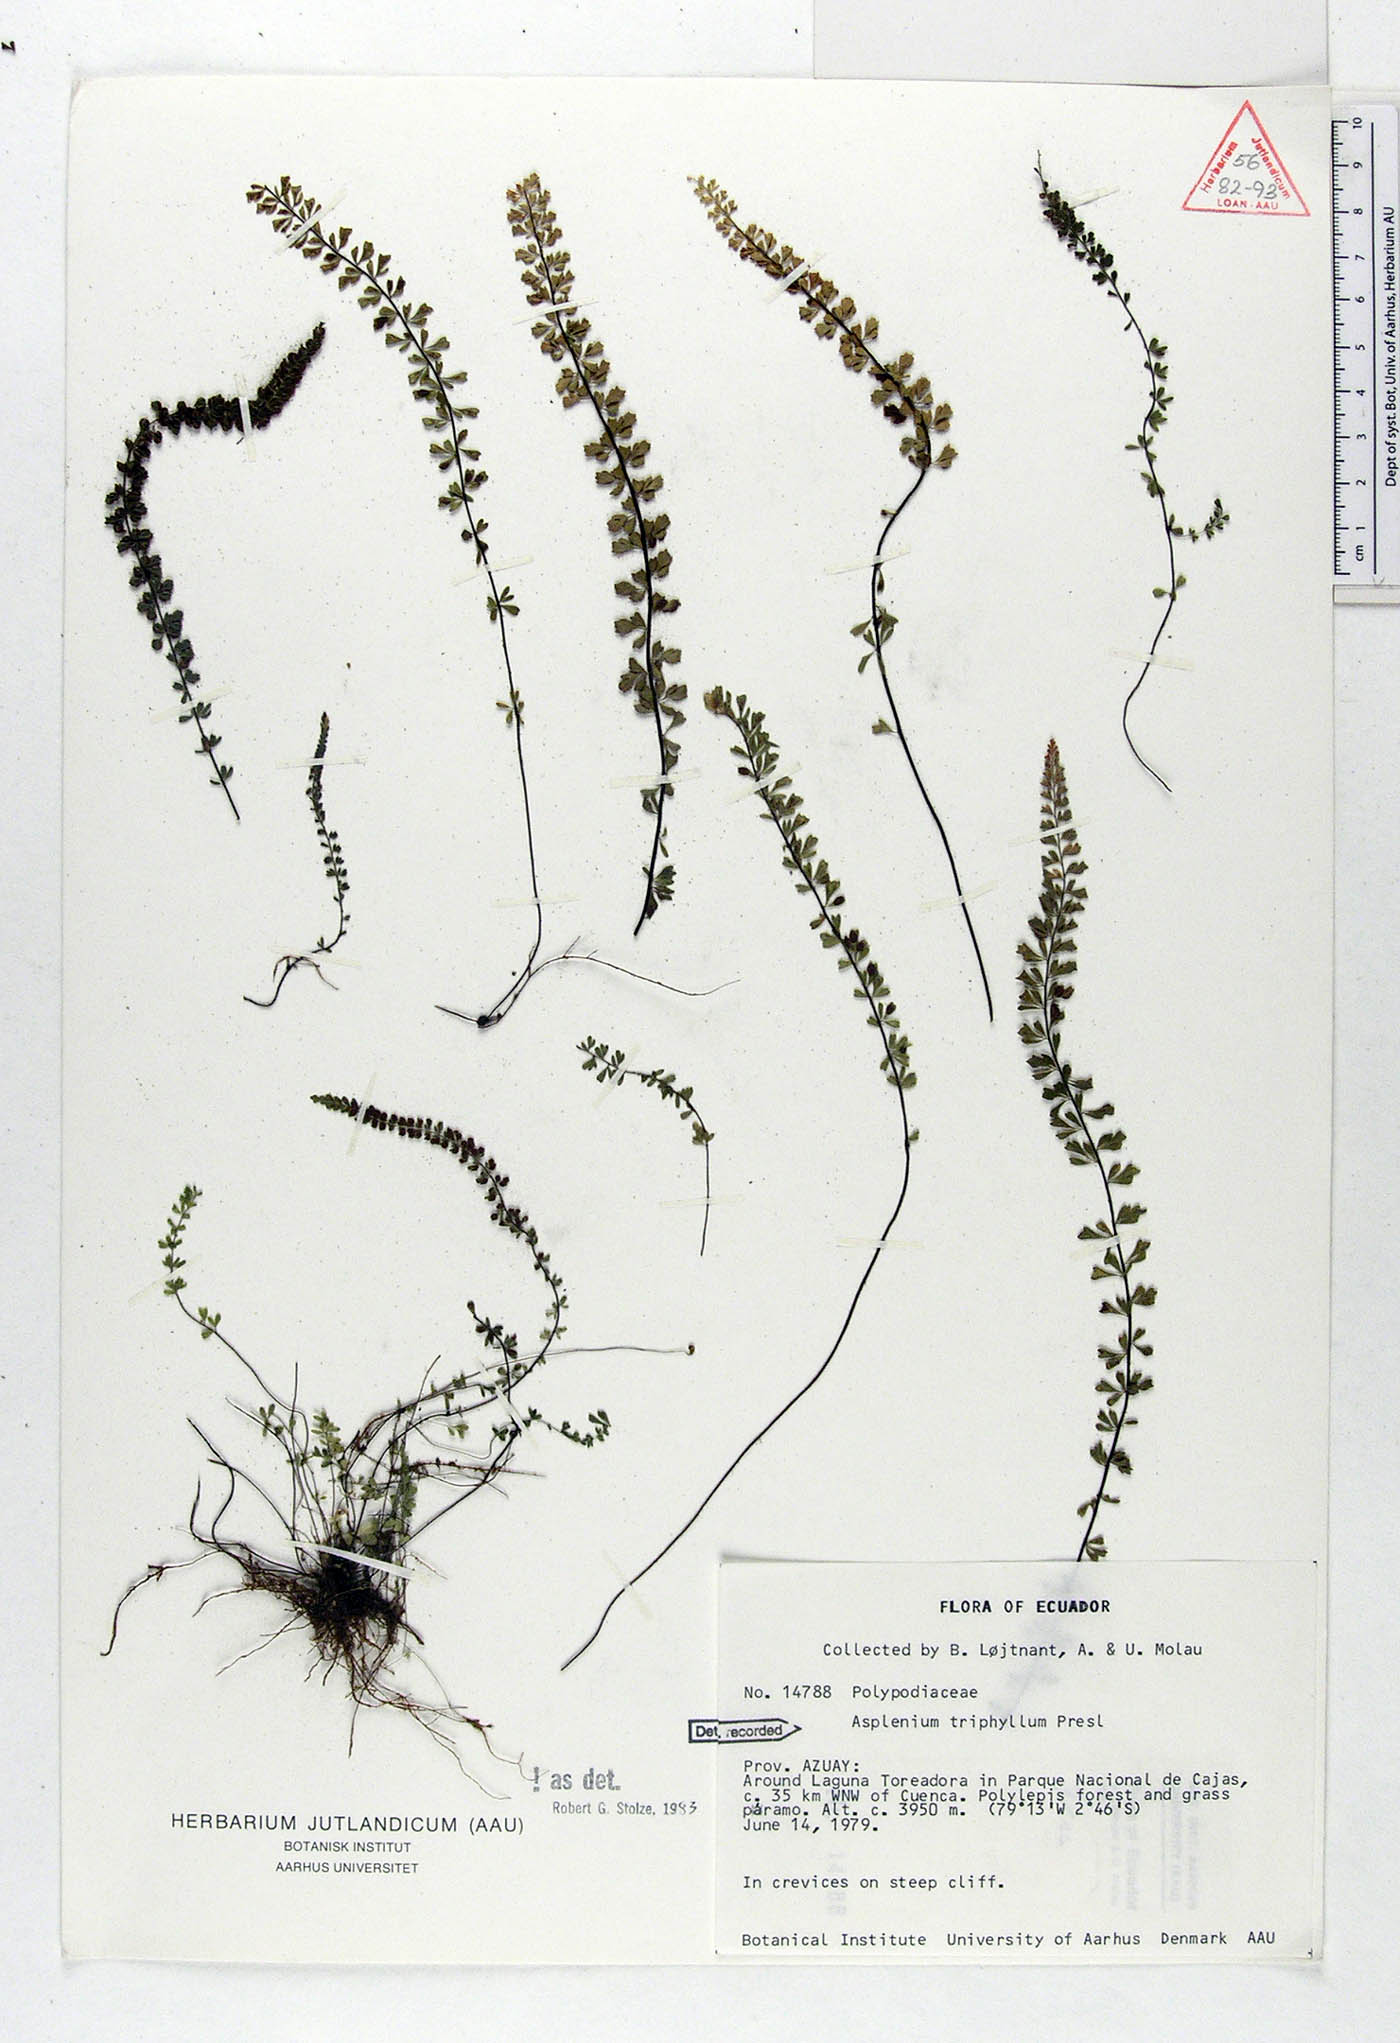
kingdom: Plantae
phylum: Tracheophyta
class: Polypodiopsida
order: Polypodiales
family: Aspleniaceae
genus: Asplenium
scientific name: Asplenium triphyllum
